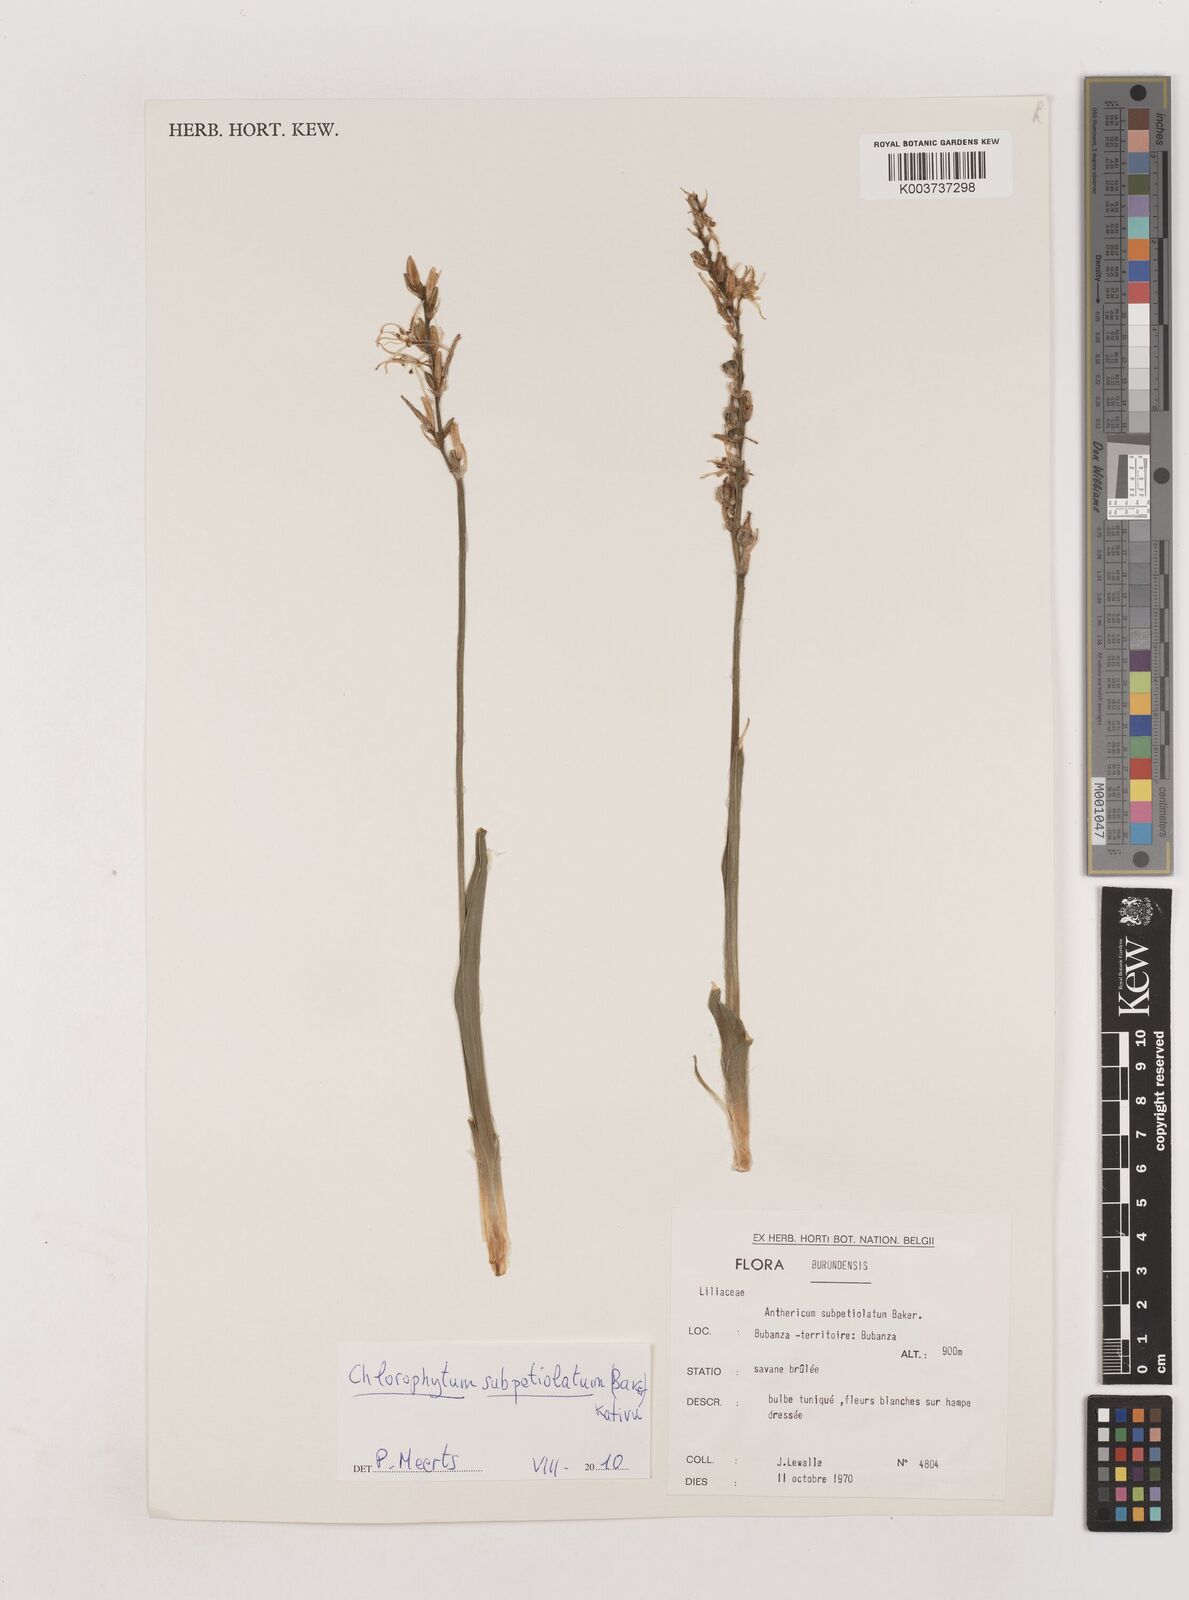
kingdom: Plantae
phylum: Tracheophyta
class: Liliopsida
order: Asparagales
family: Asparagaceae
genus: Chlorophytum
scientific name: Chlorophytum subpetiolatum
